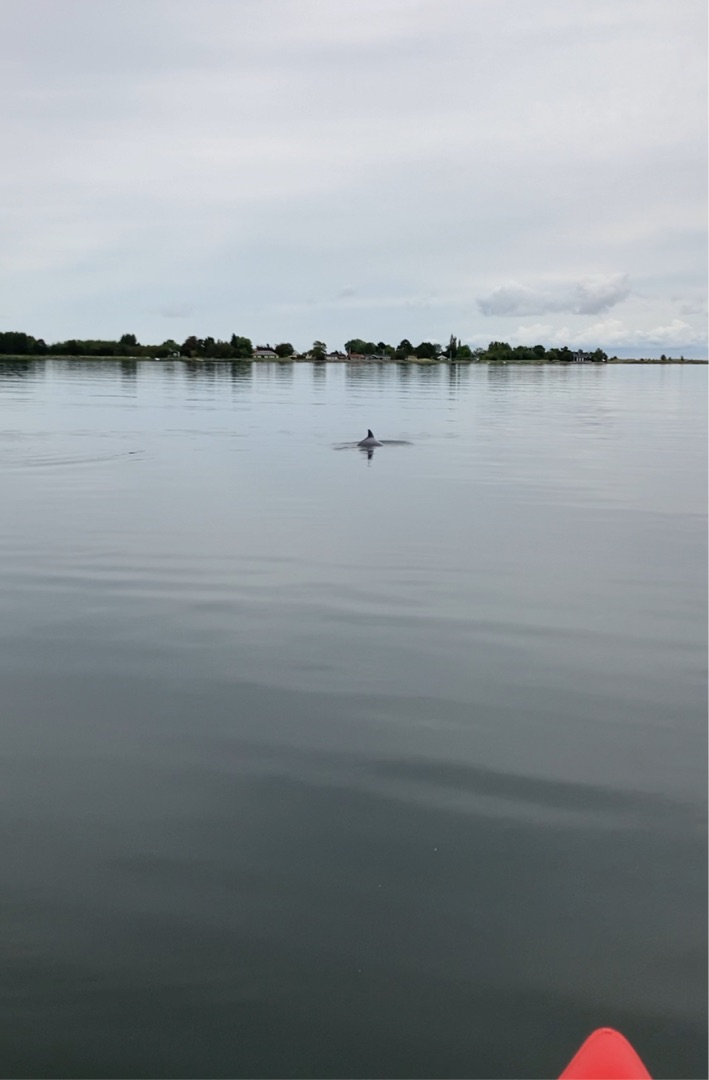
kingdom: Animalia
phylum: Chordata
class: Mammalia
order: Cetacea
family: Phocoenidae
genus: Phocoena
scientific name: Phocoena phocoena
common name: Marsvin
